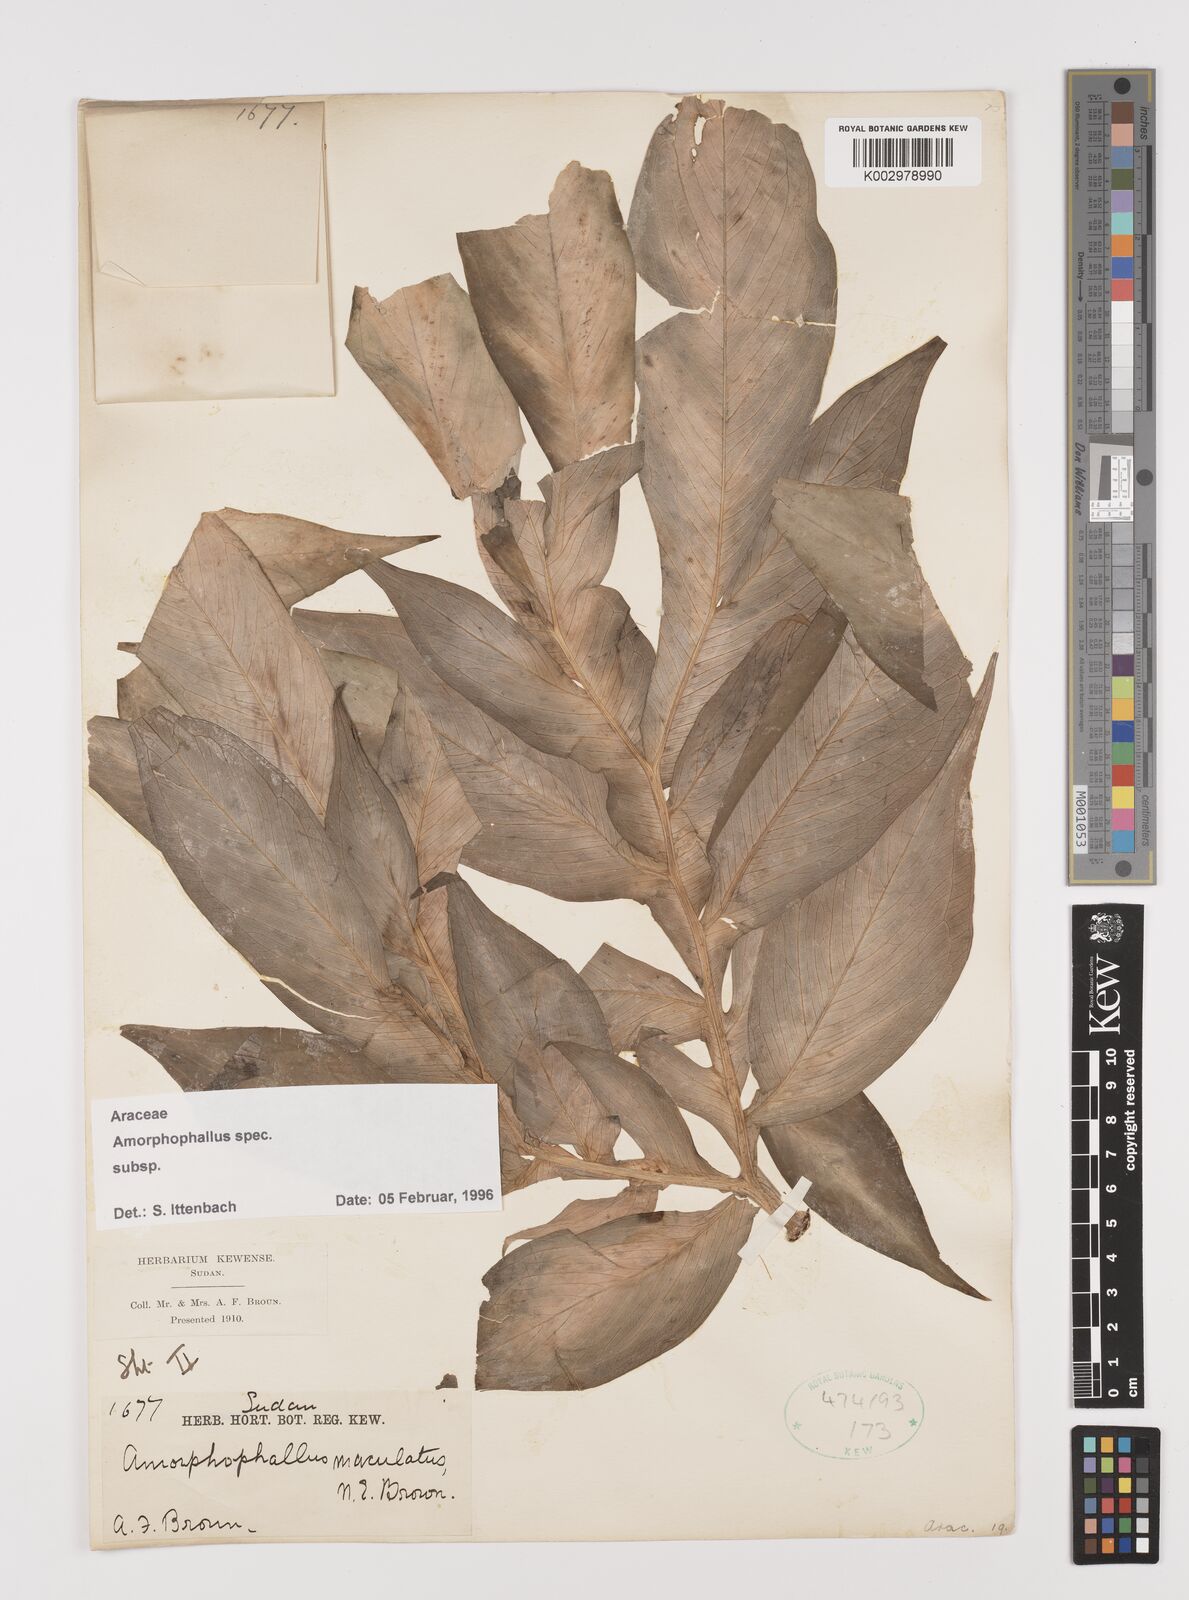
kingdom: Plantae
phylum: Tracheophyta
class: Liliopsida
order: Alismatales
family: Araceae
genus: Amorphophallus
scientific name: Amorphophallus
